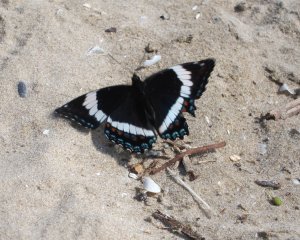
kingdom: Animalia
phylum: Arthropoda
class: Insecta
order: Lepidoptera
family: Nymphalidae
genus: Limenitis
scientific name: Limenitis arthemis
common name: Red-spotted Admiral
